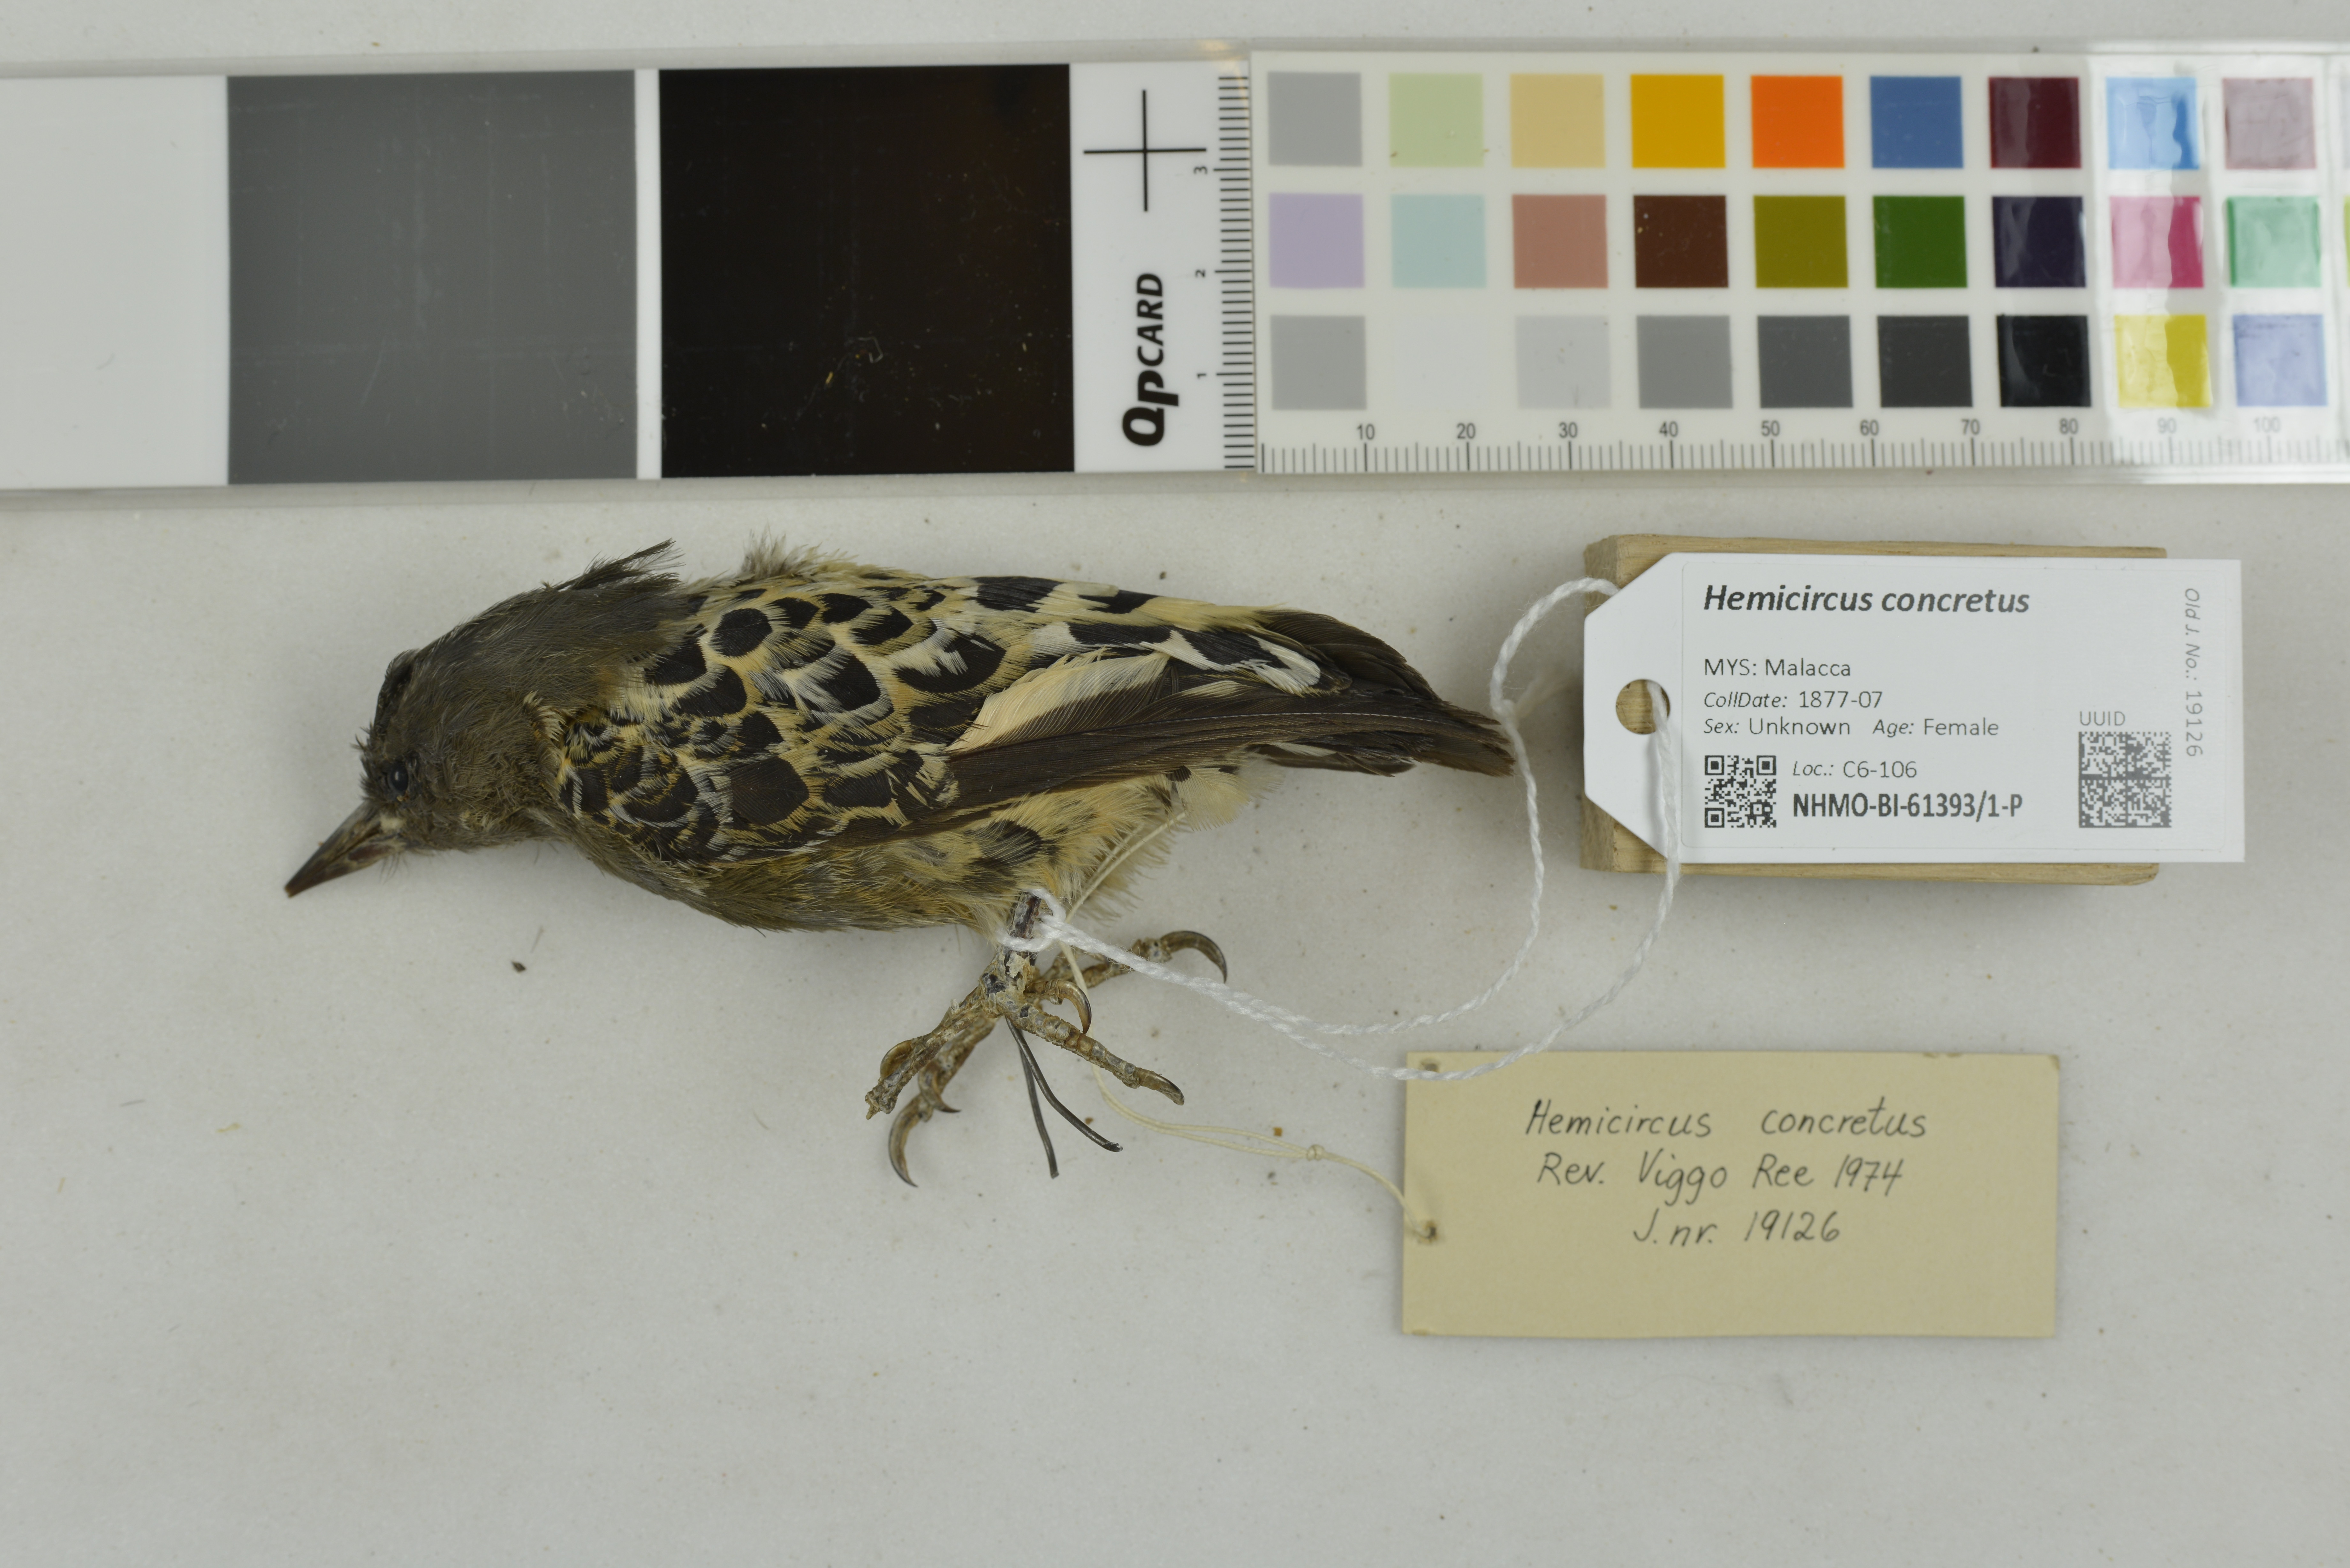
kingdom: Animalia
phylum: Chordata
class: Aves
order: Piciformes
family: Picidae
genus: Hemicircus
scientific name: Hemicircus concretus
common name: Grey-and-buff woodpecker
